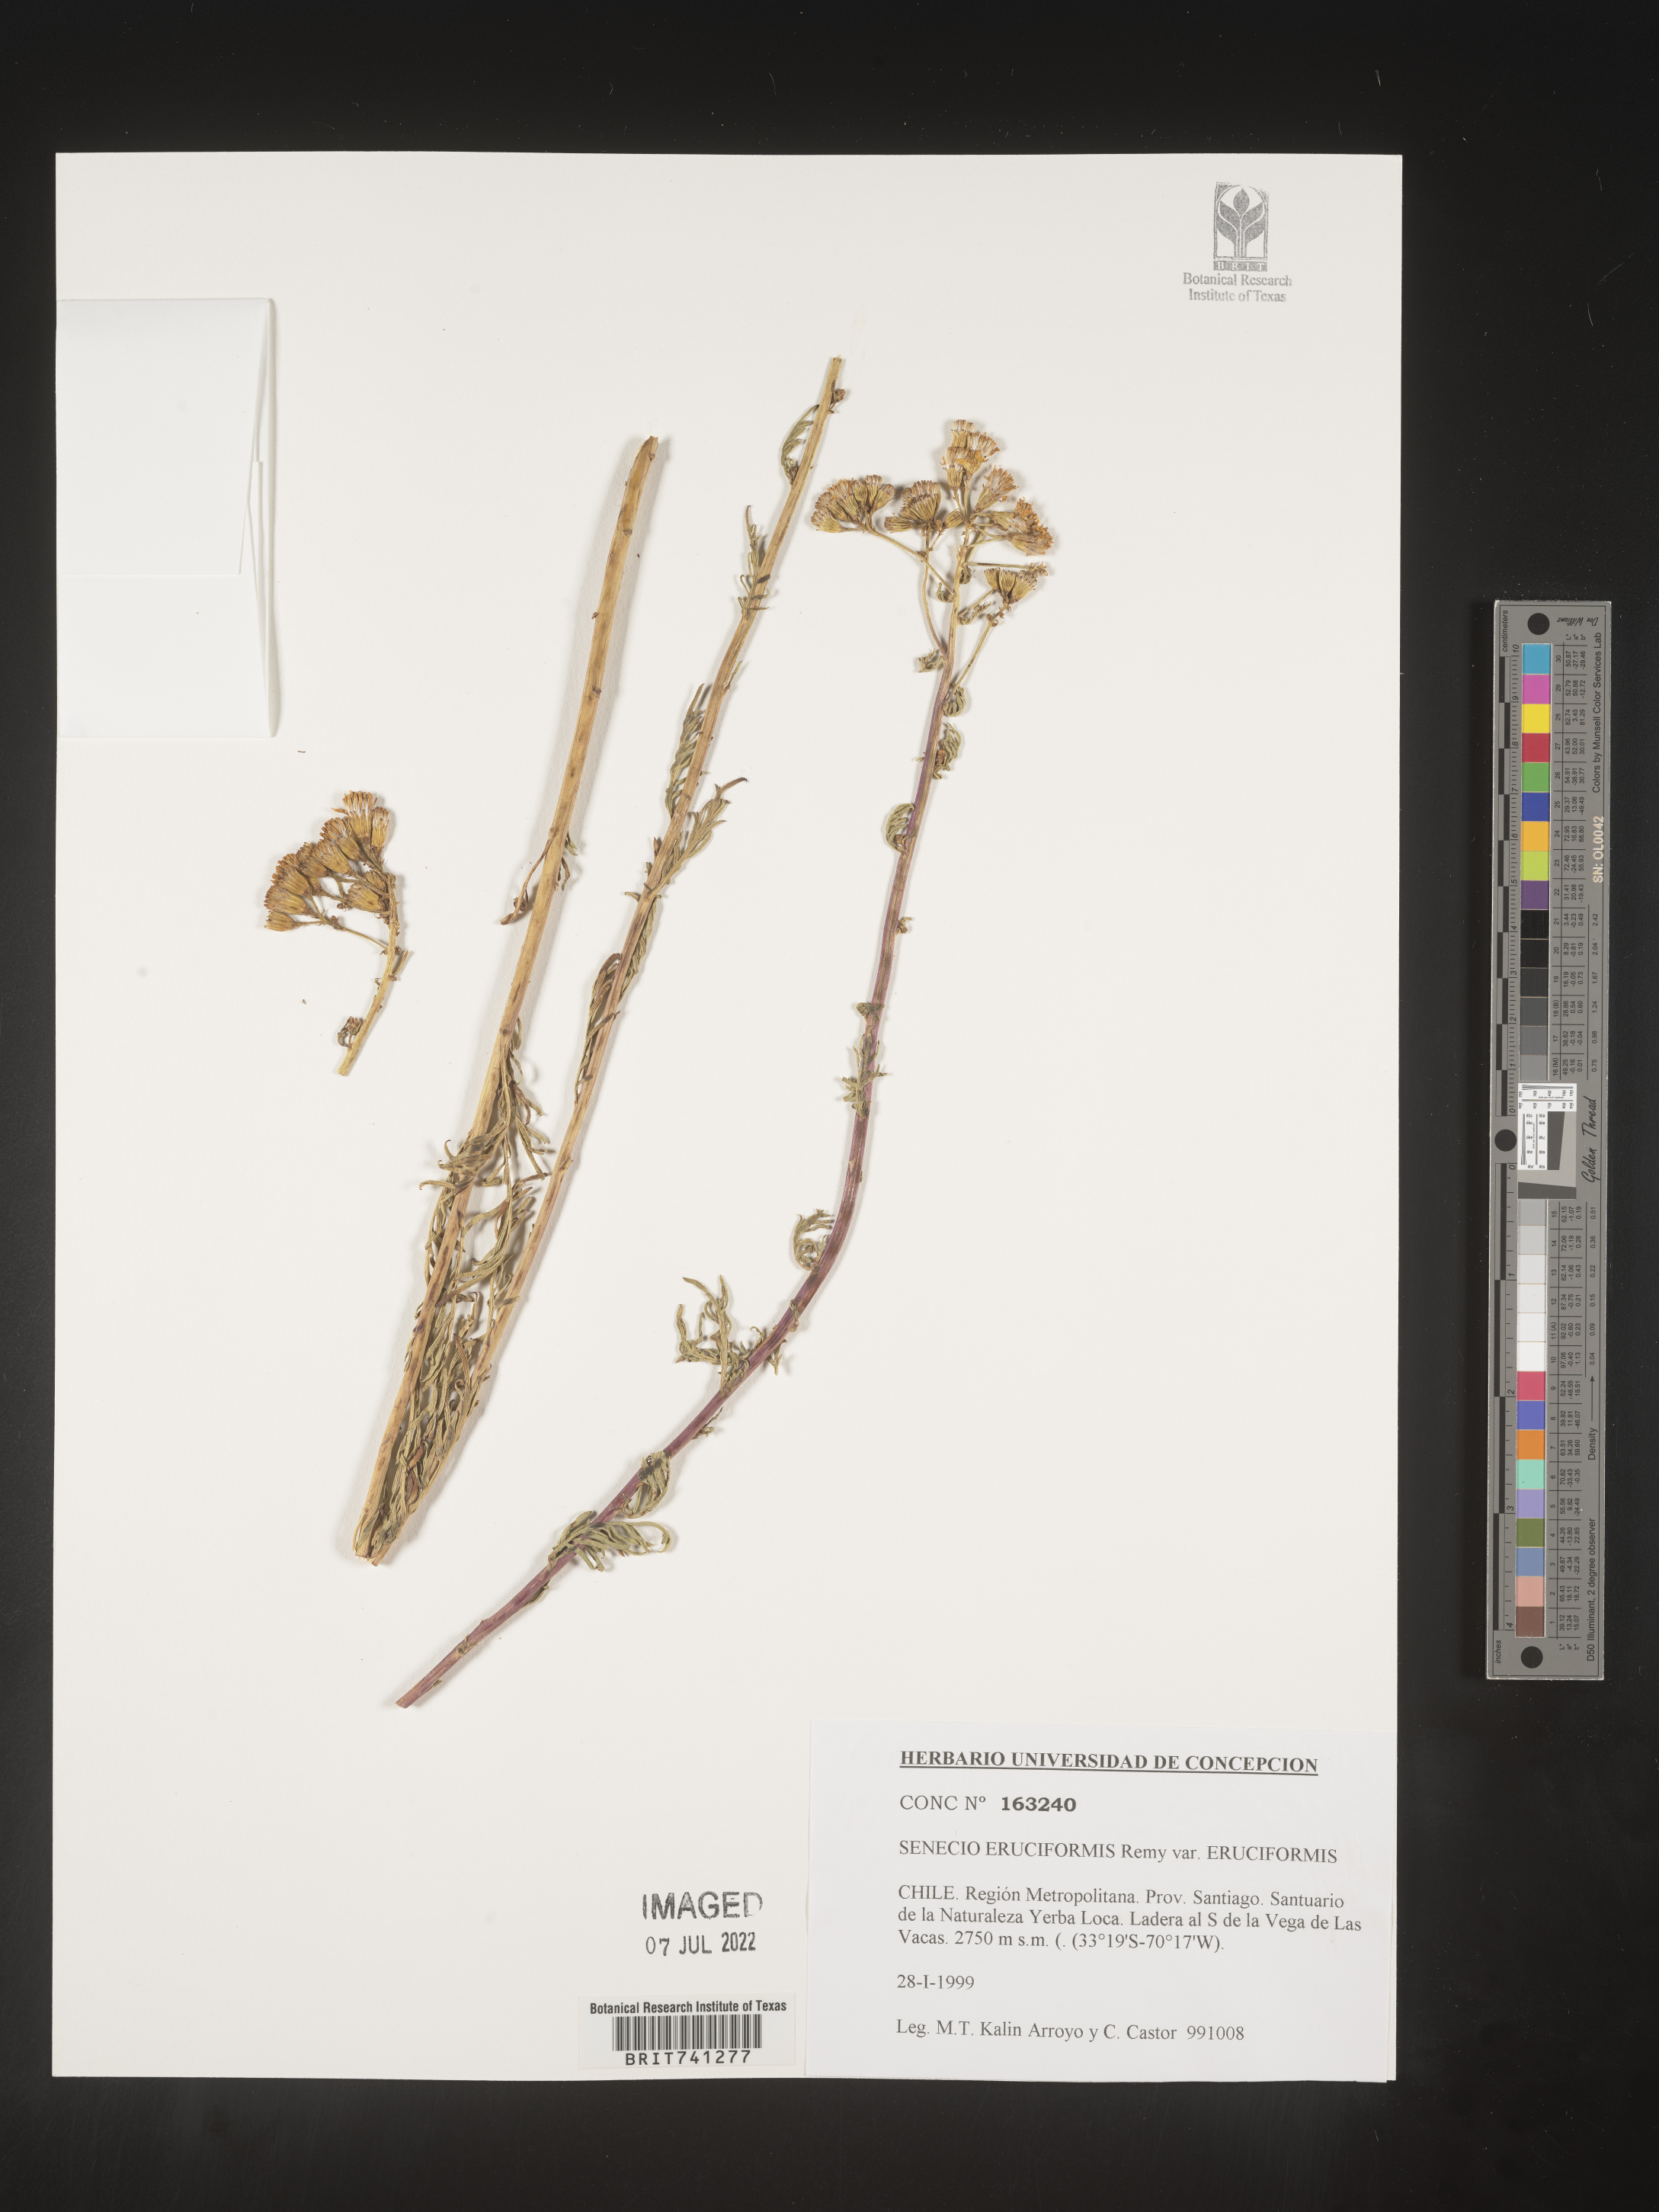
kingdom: Plantae
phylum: Tracheophyta
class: Magnoliopsida
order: Asterales
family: Asteraceae
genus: Senecio
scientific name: Senecio
